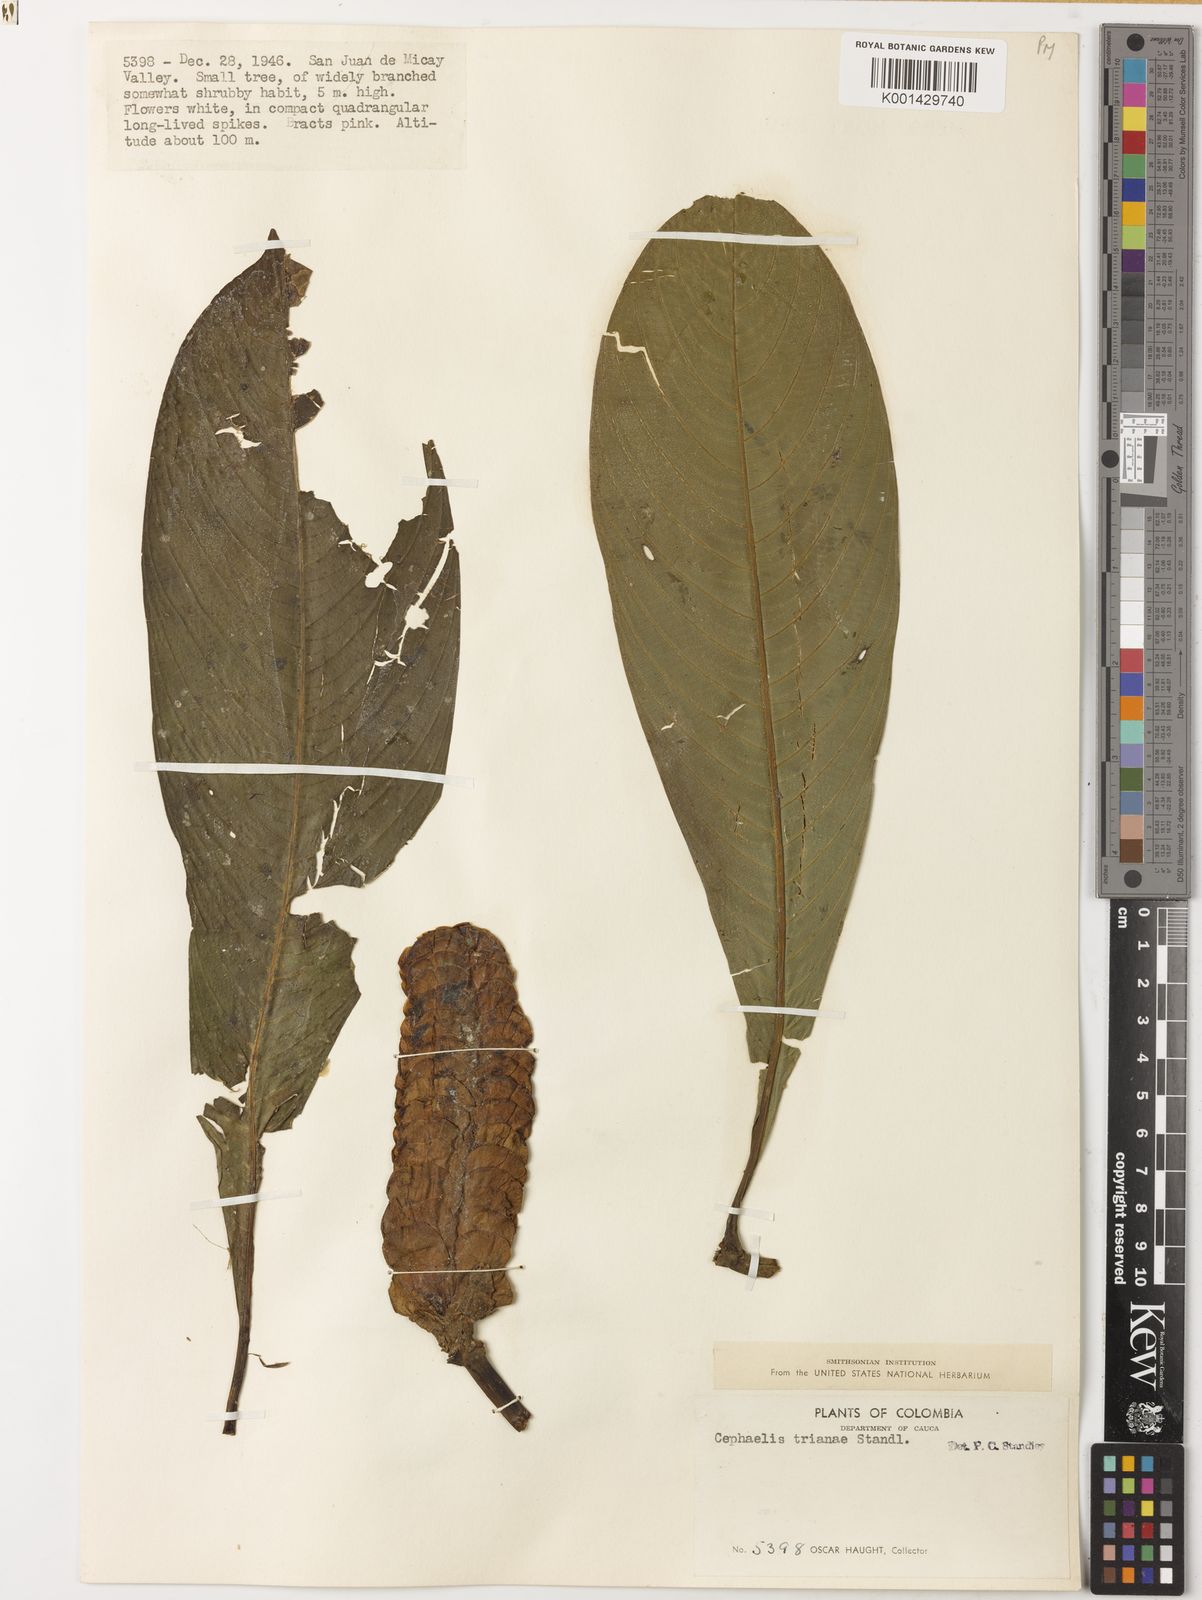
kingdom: Plantae
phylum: Tracheophyta
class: Magnoliopsida
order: Gentianales
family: Rubiaceae
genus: Palicourea
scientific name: Palicourea trianae
